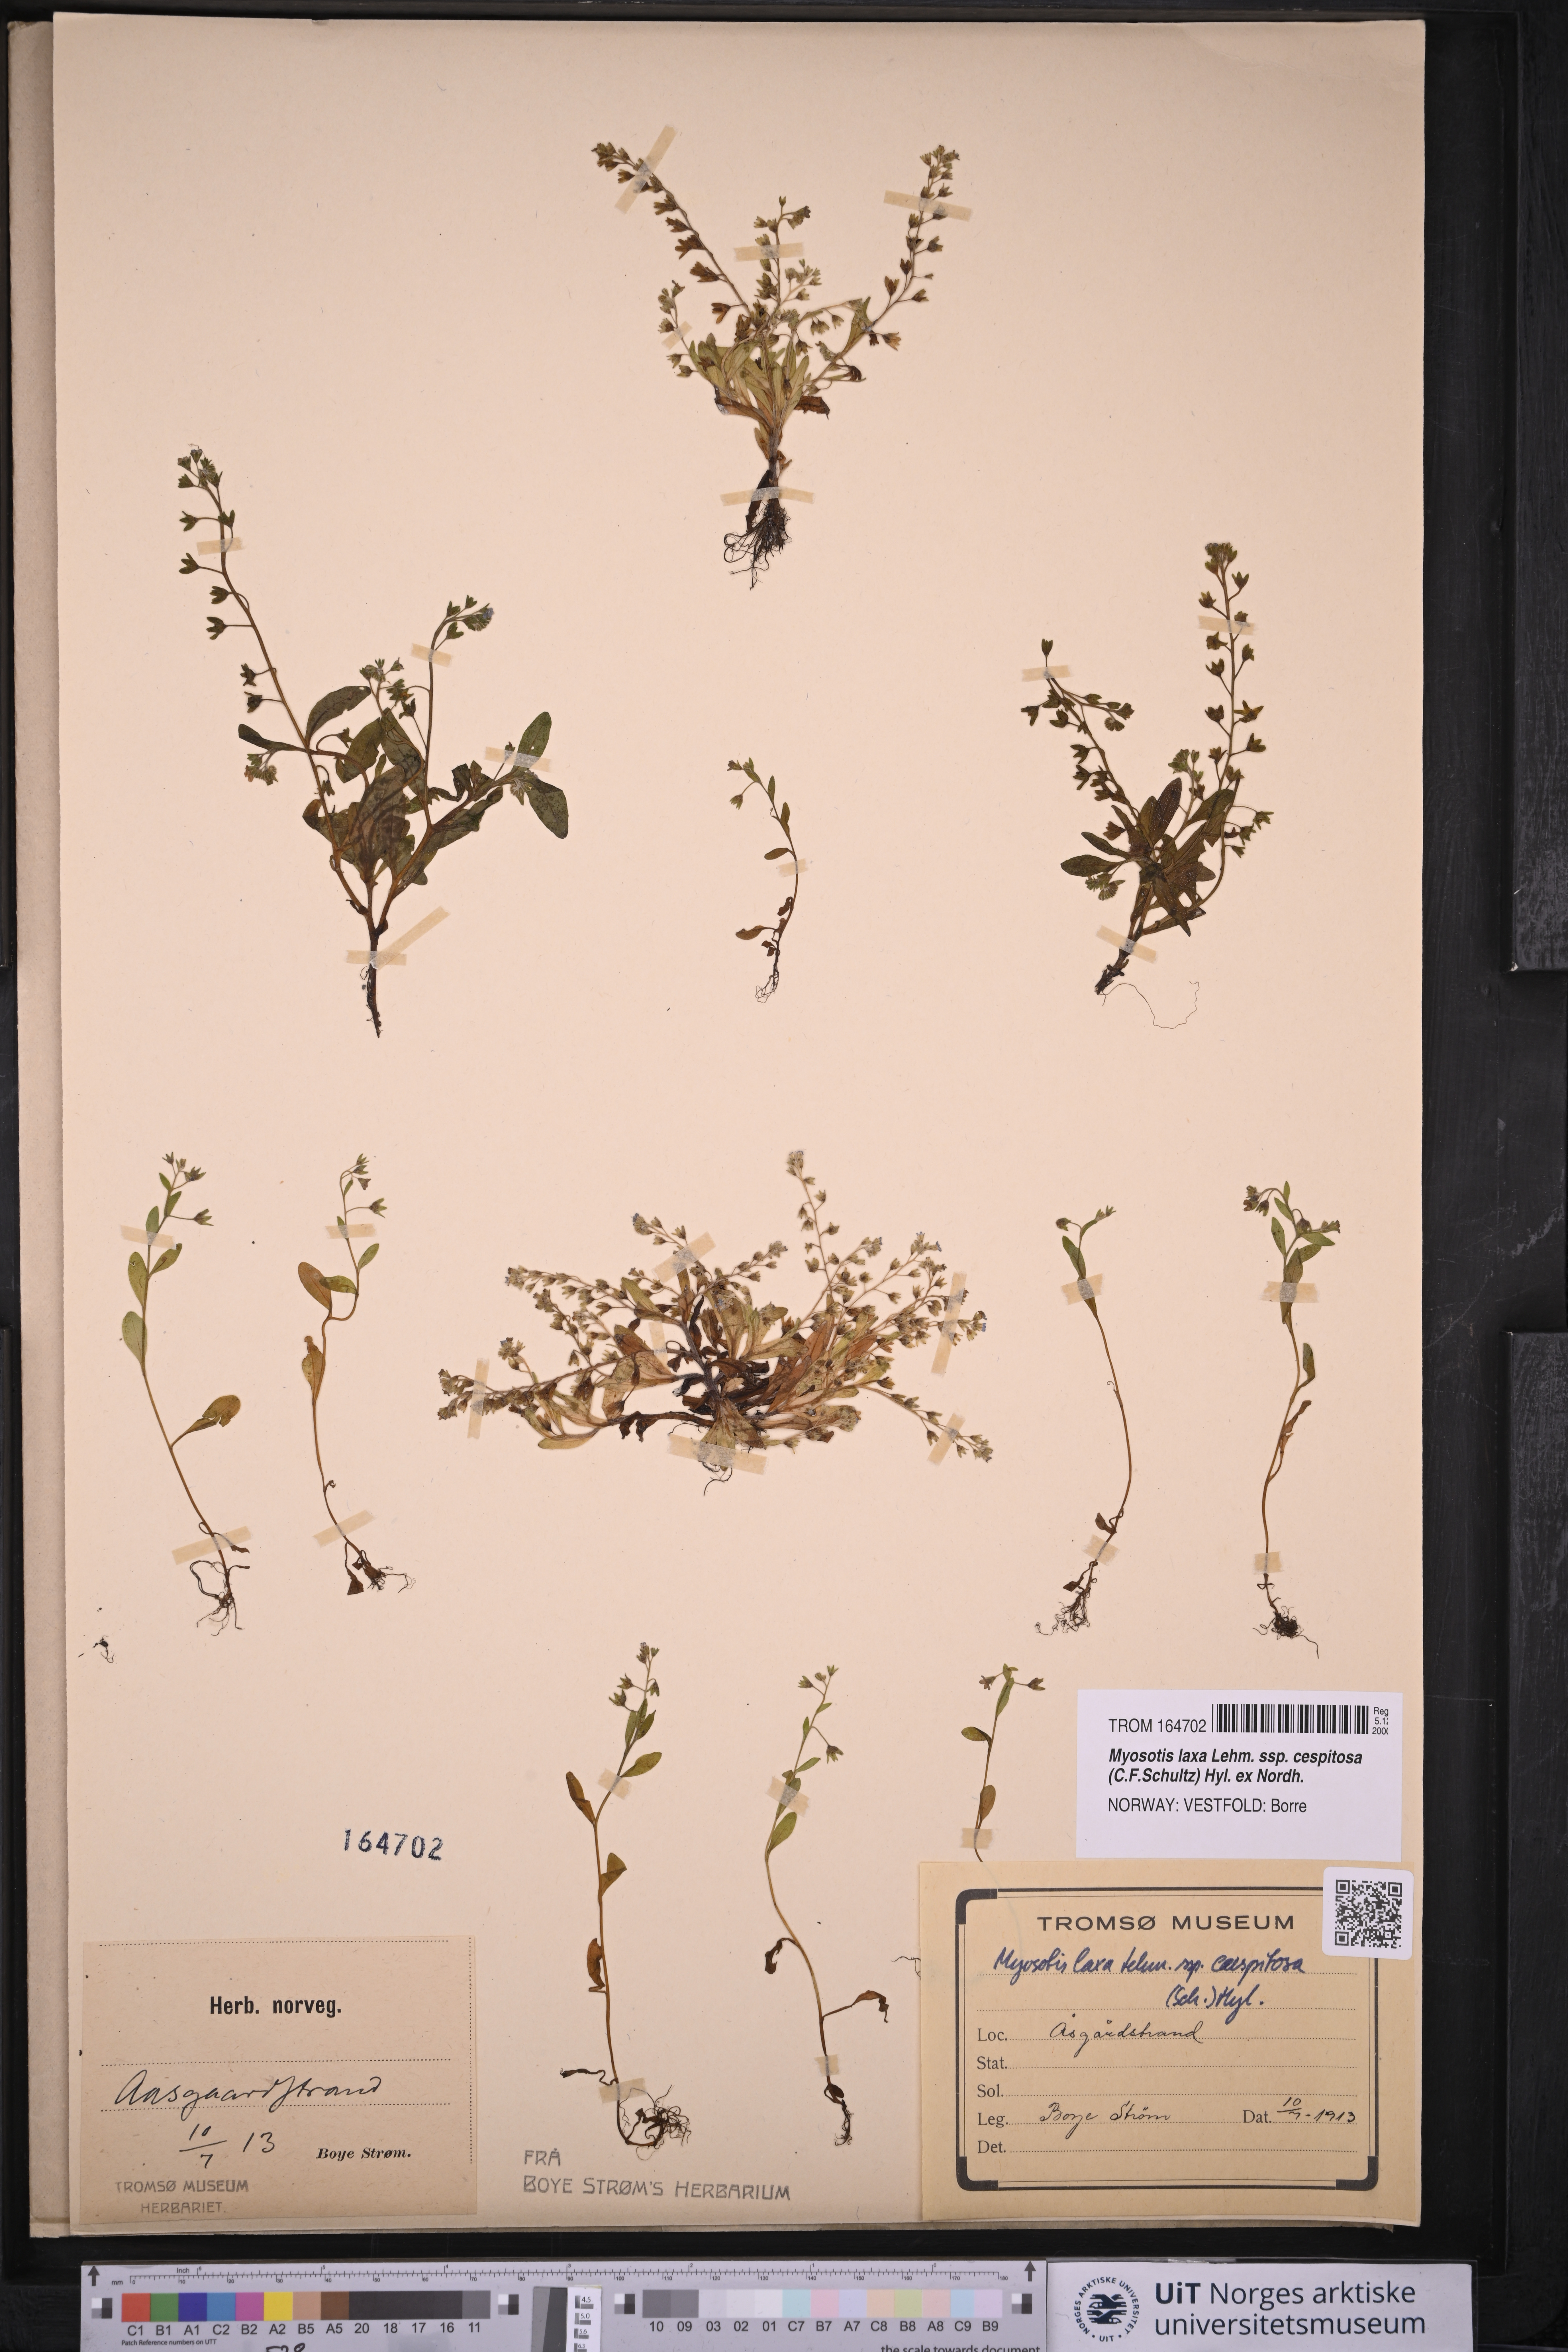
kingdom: Plantae
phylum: Tracheophyta
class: Magnoliopsida
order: Boraginales
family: Boraginaceae
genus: Myosotis
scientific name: Myosotis laxa
